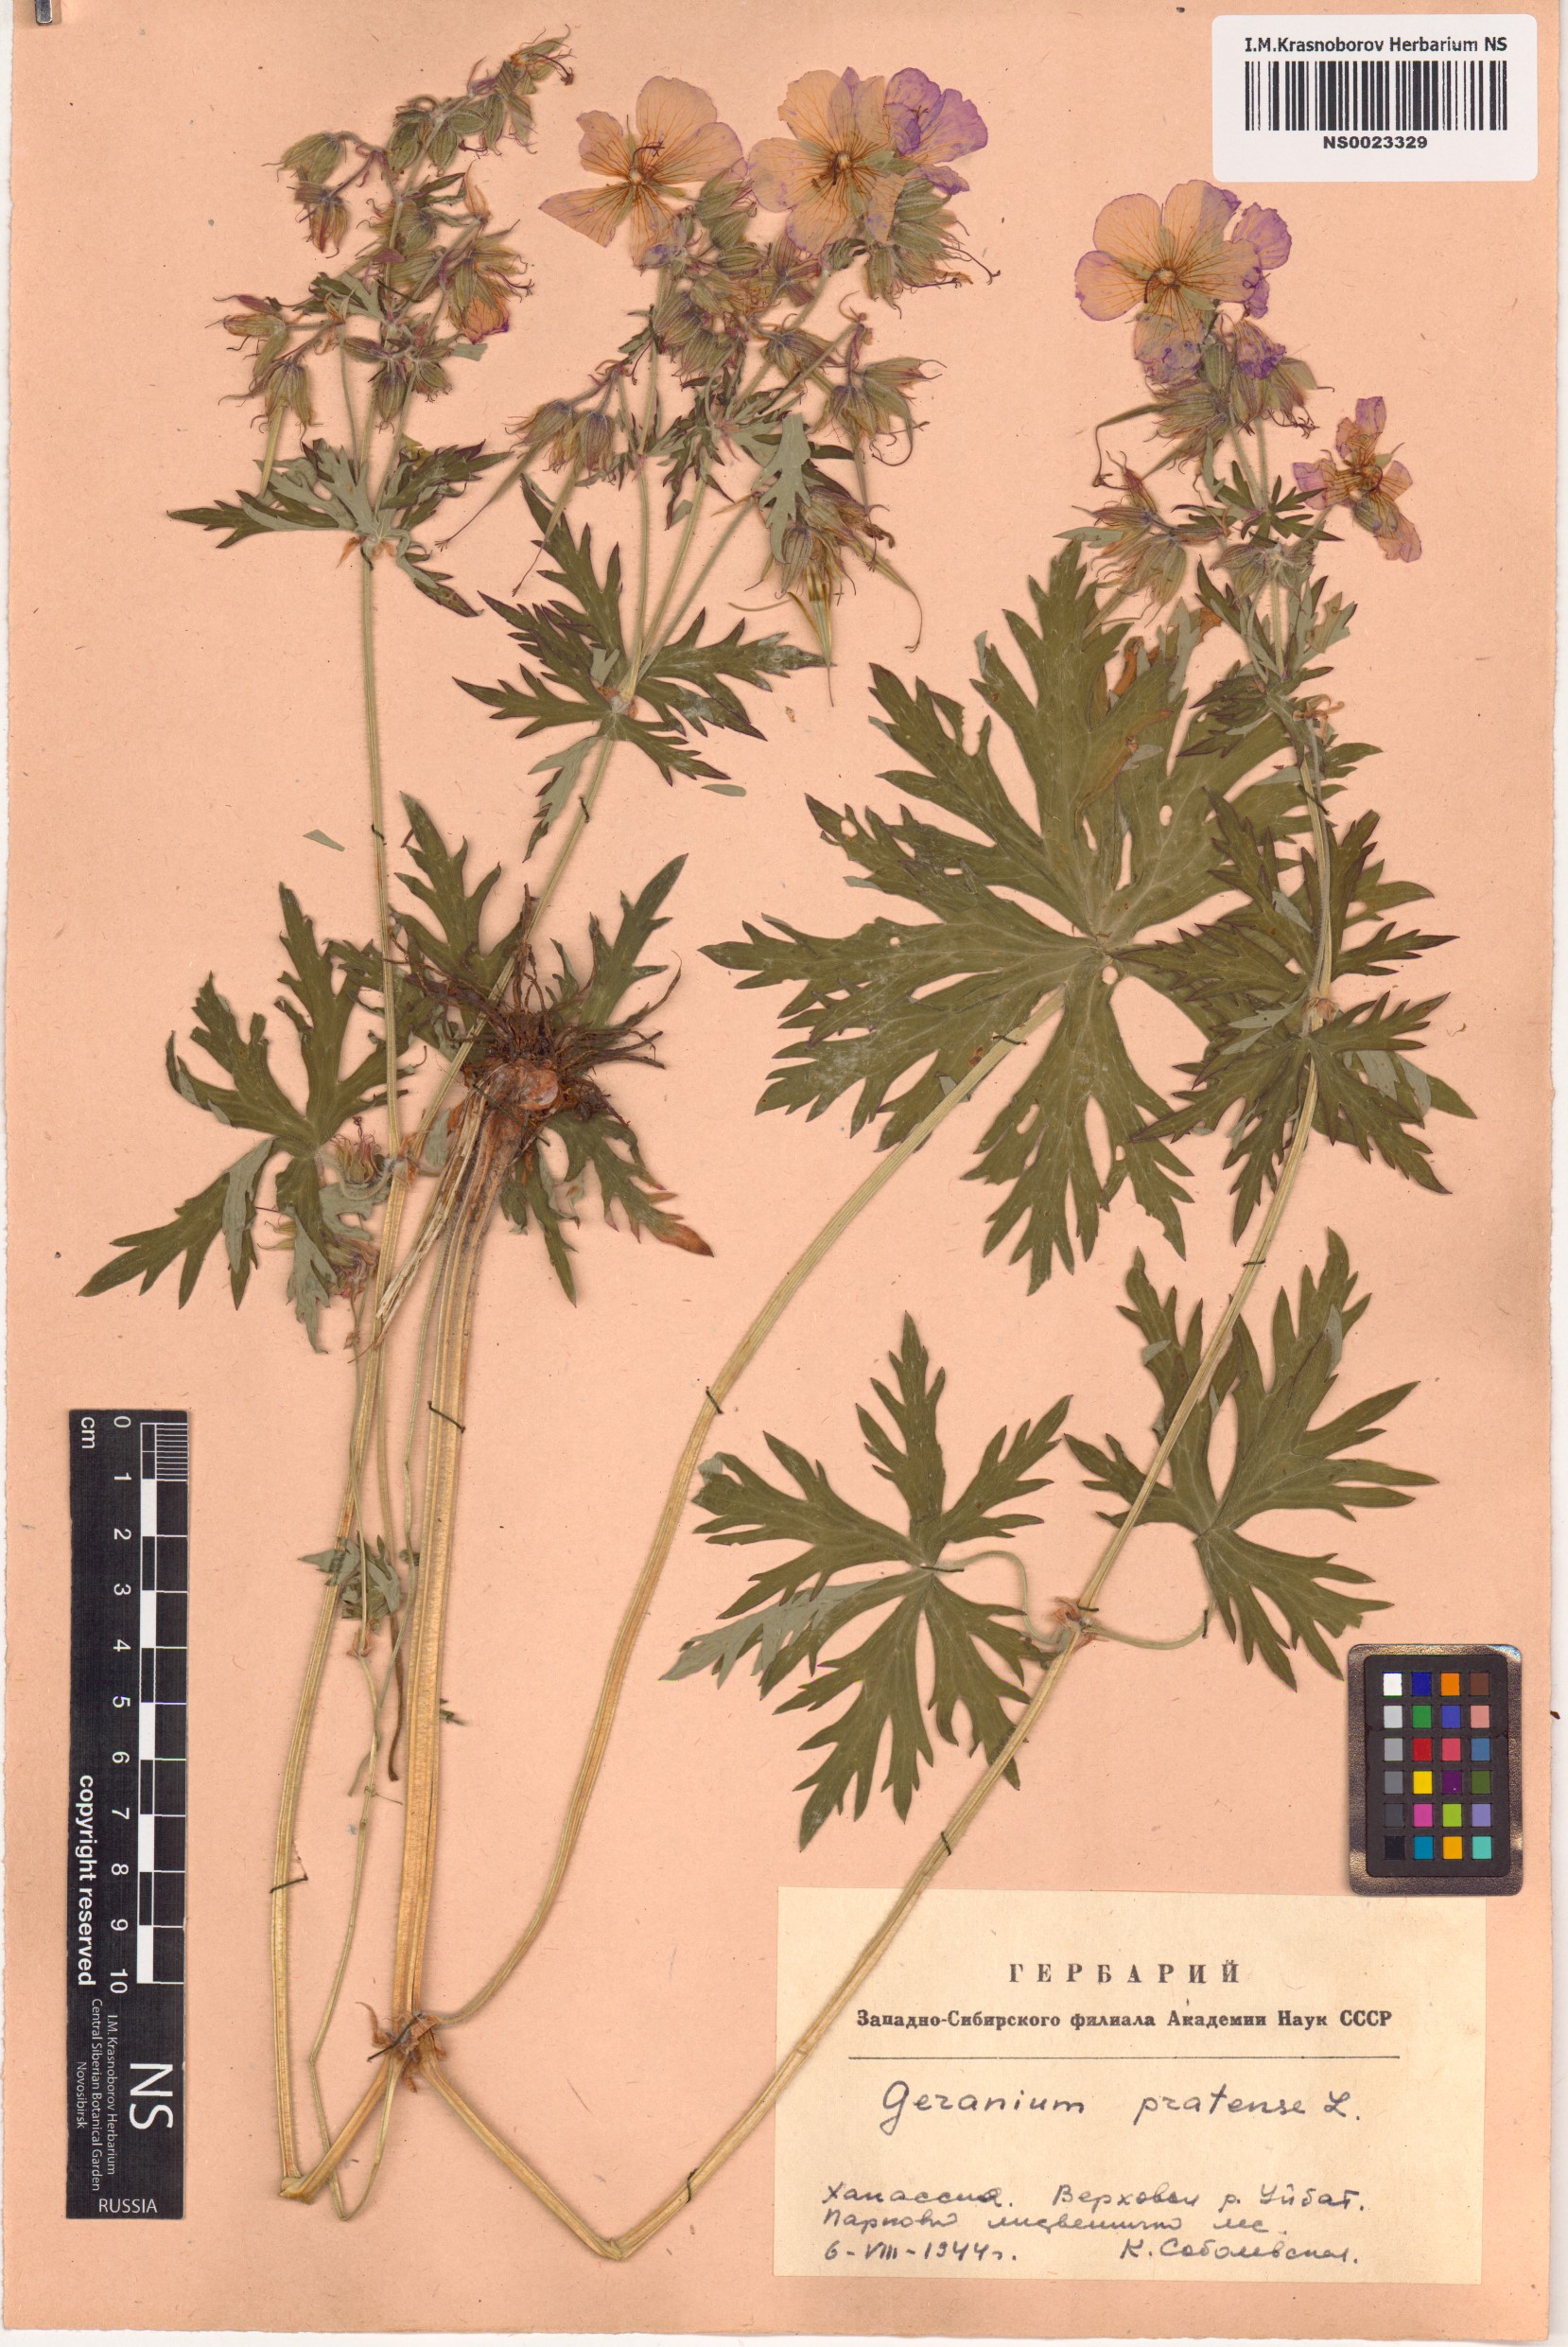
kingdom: Plantae
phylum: Tracheophyta
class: Magnoliopsida
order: Geraniales
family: Geraniaceae
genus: Geranium
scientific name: Geranium pratense
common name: Meadow crane's-bill
